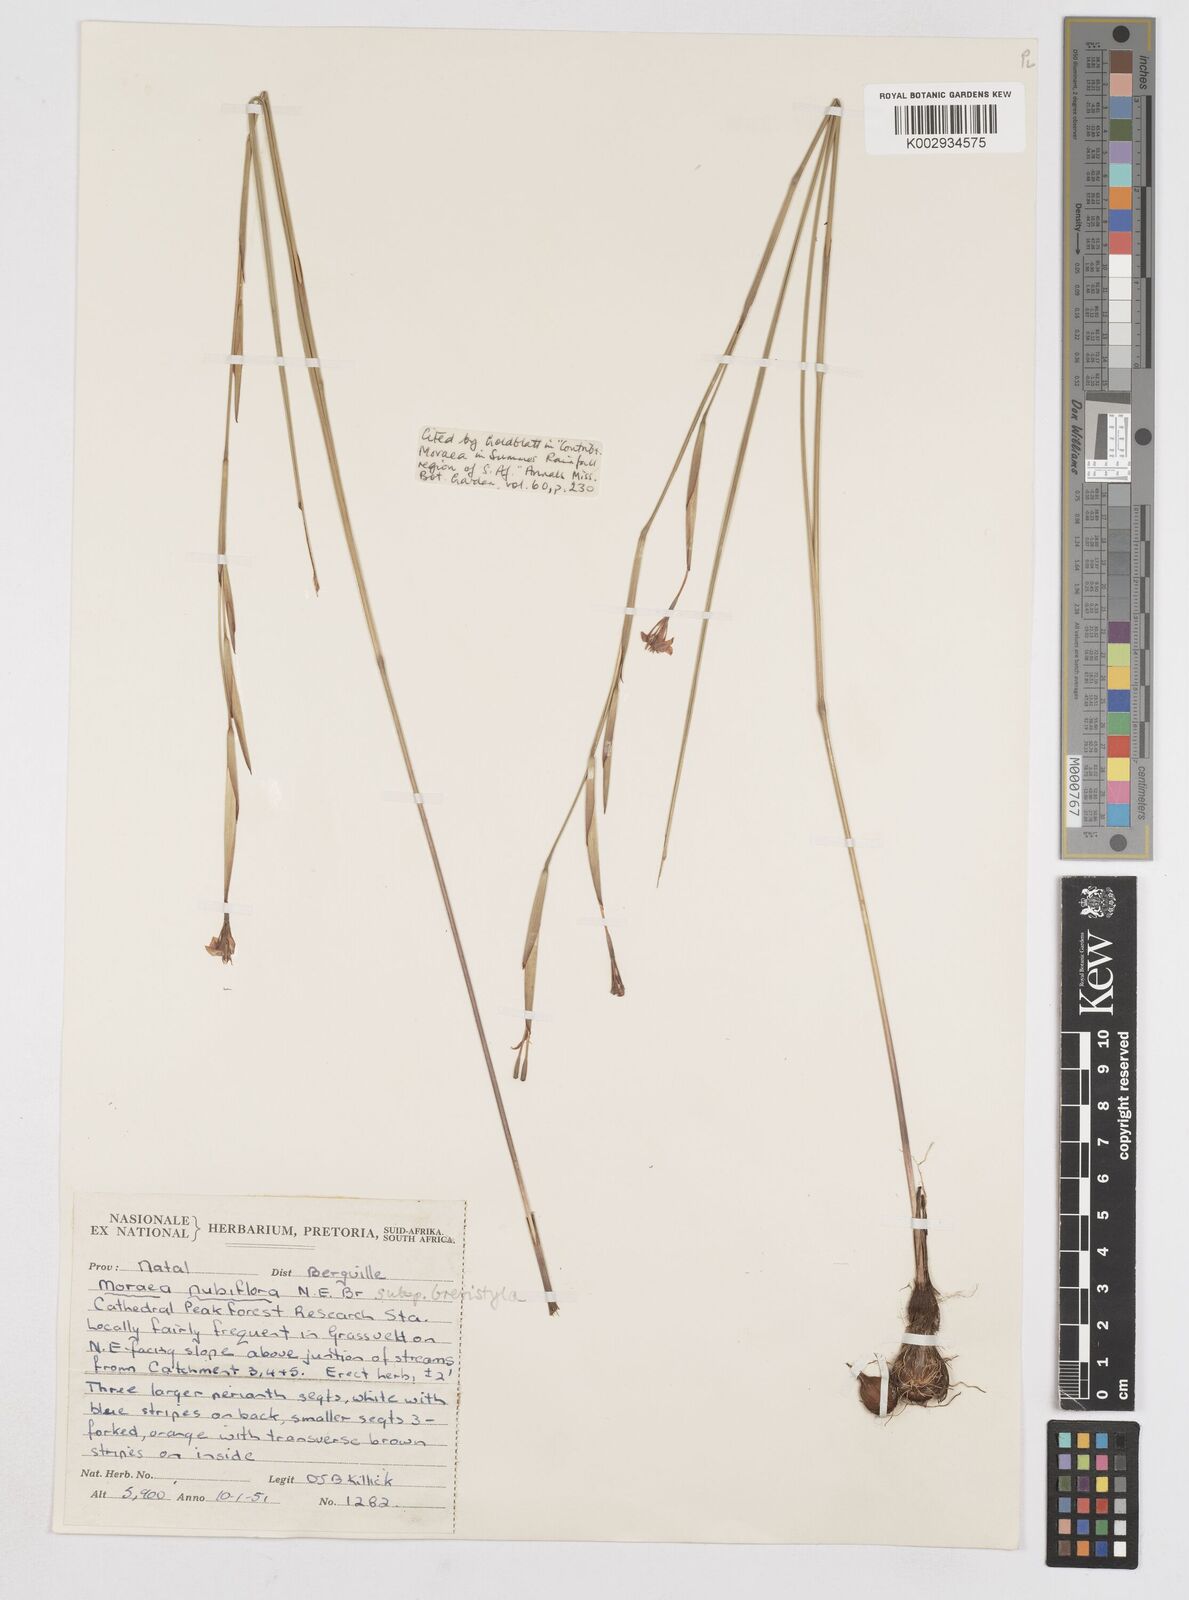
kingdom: Plantae
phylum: Tracheophyta
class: Liliopsida
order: Asparagales
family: Iridaceae
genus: Moraea
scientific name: Moraea brevistyla
